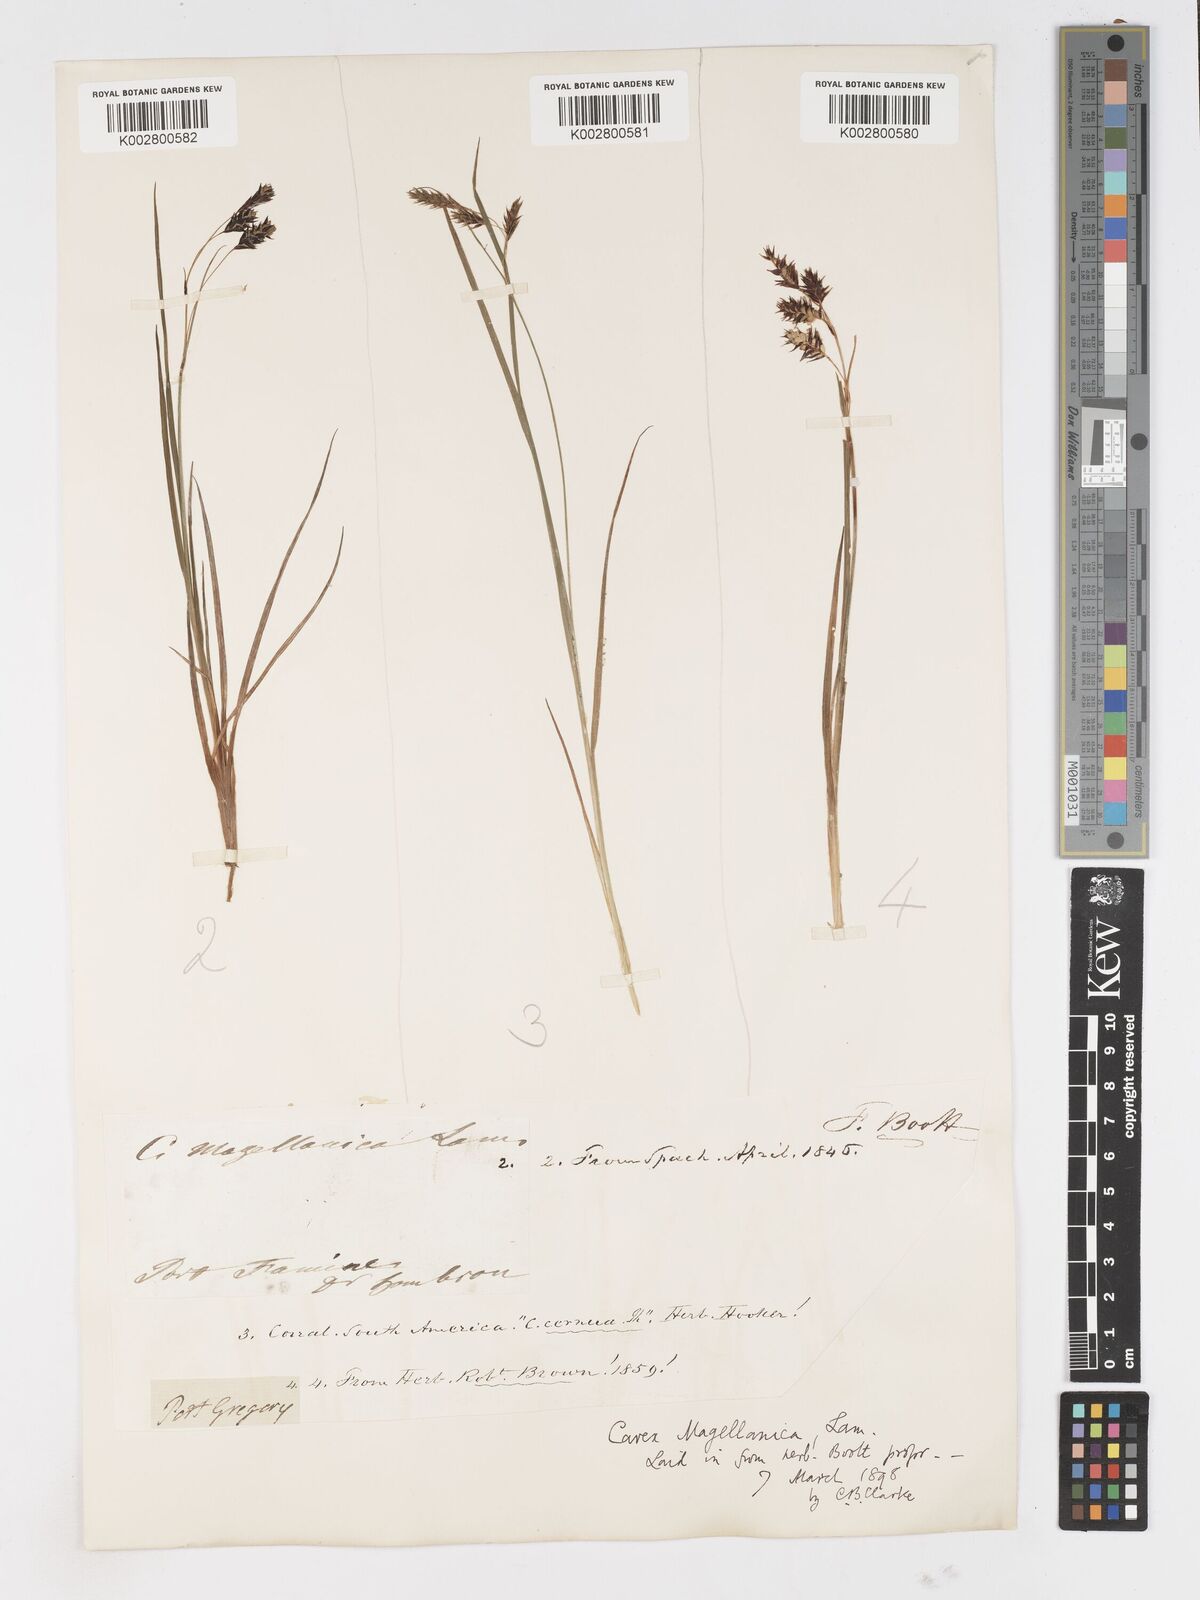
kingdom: Plantae
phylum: Tracheophyta
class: Liliopsida
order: Poales
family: Cyperaceae
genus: Carex
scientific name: Carex magellanica
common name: Bog sedge
